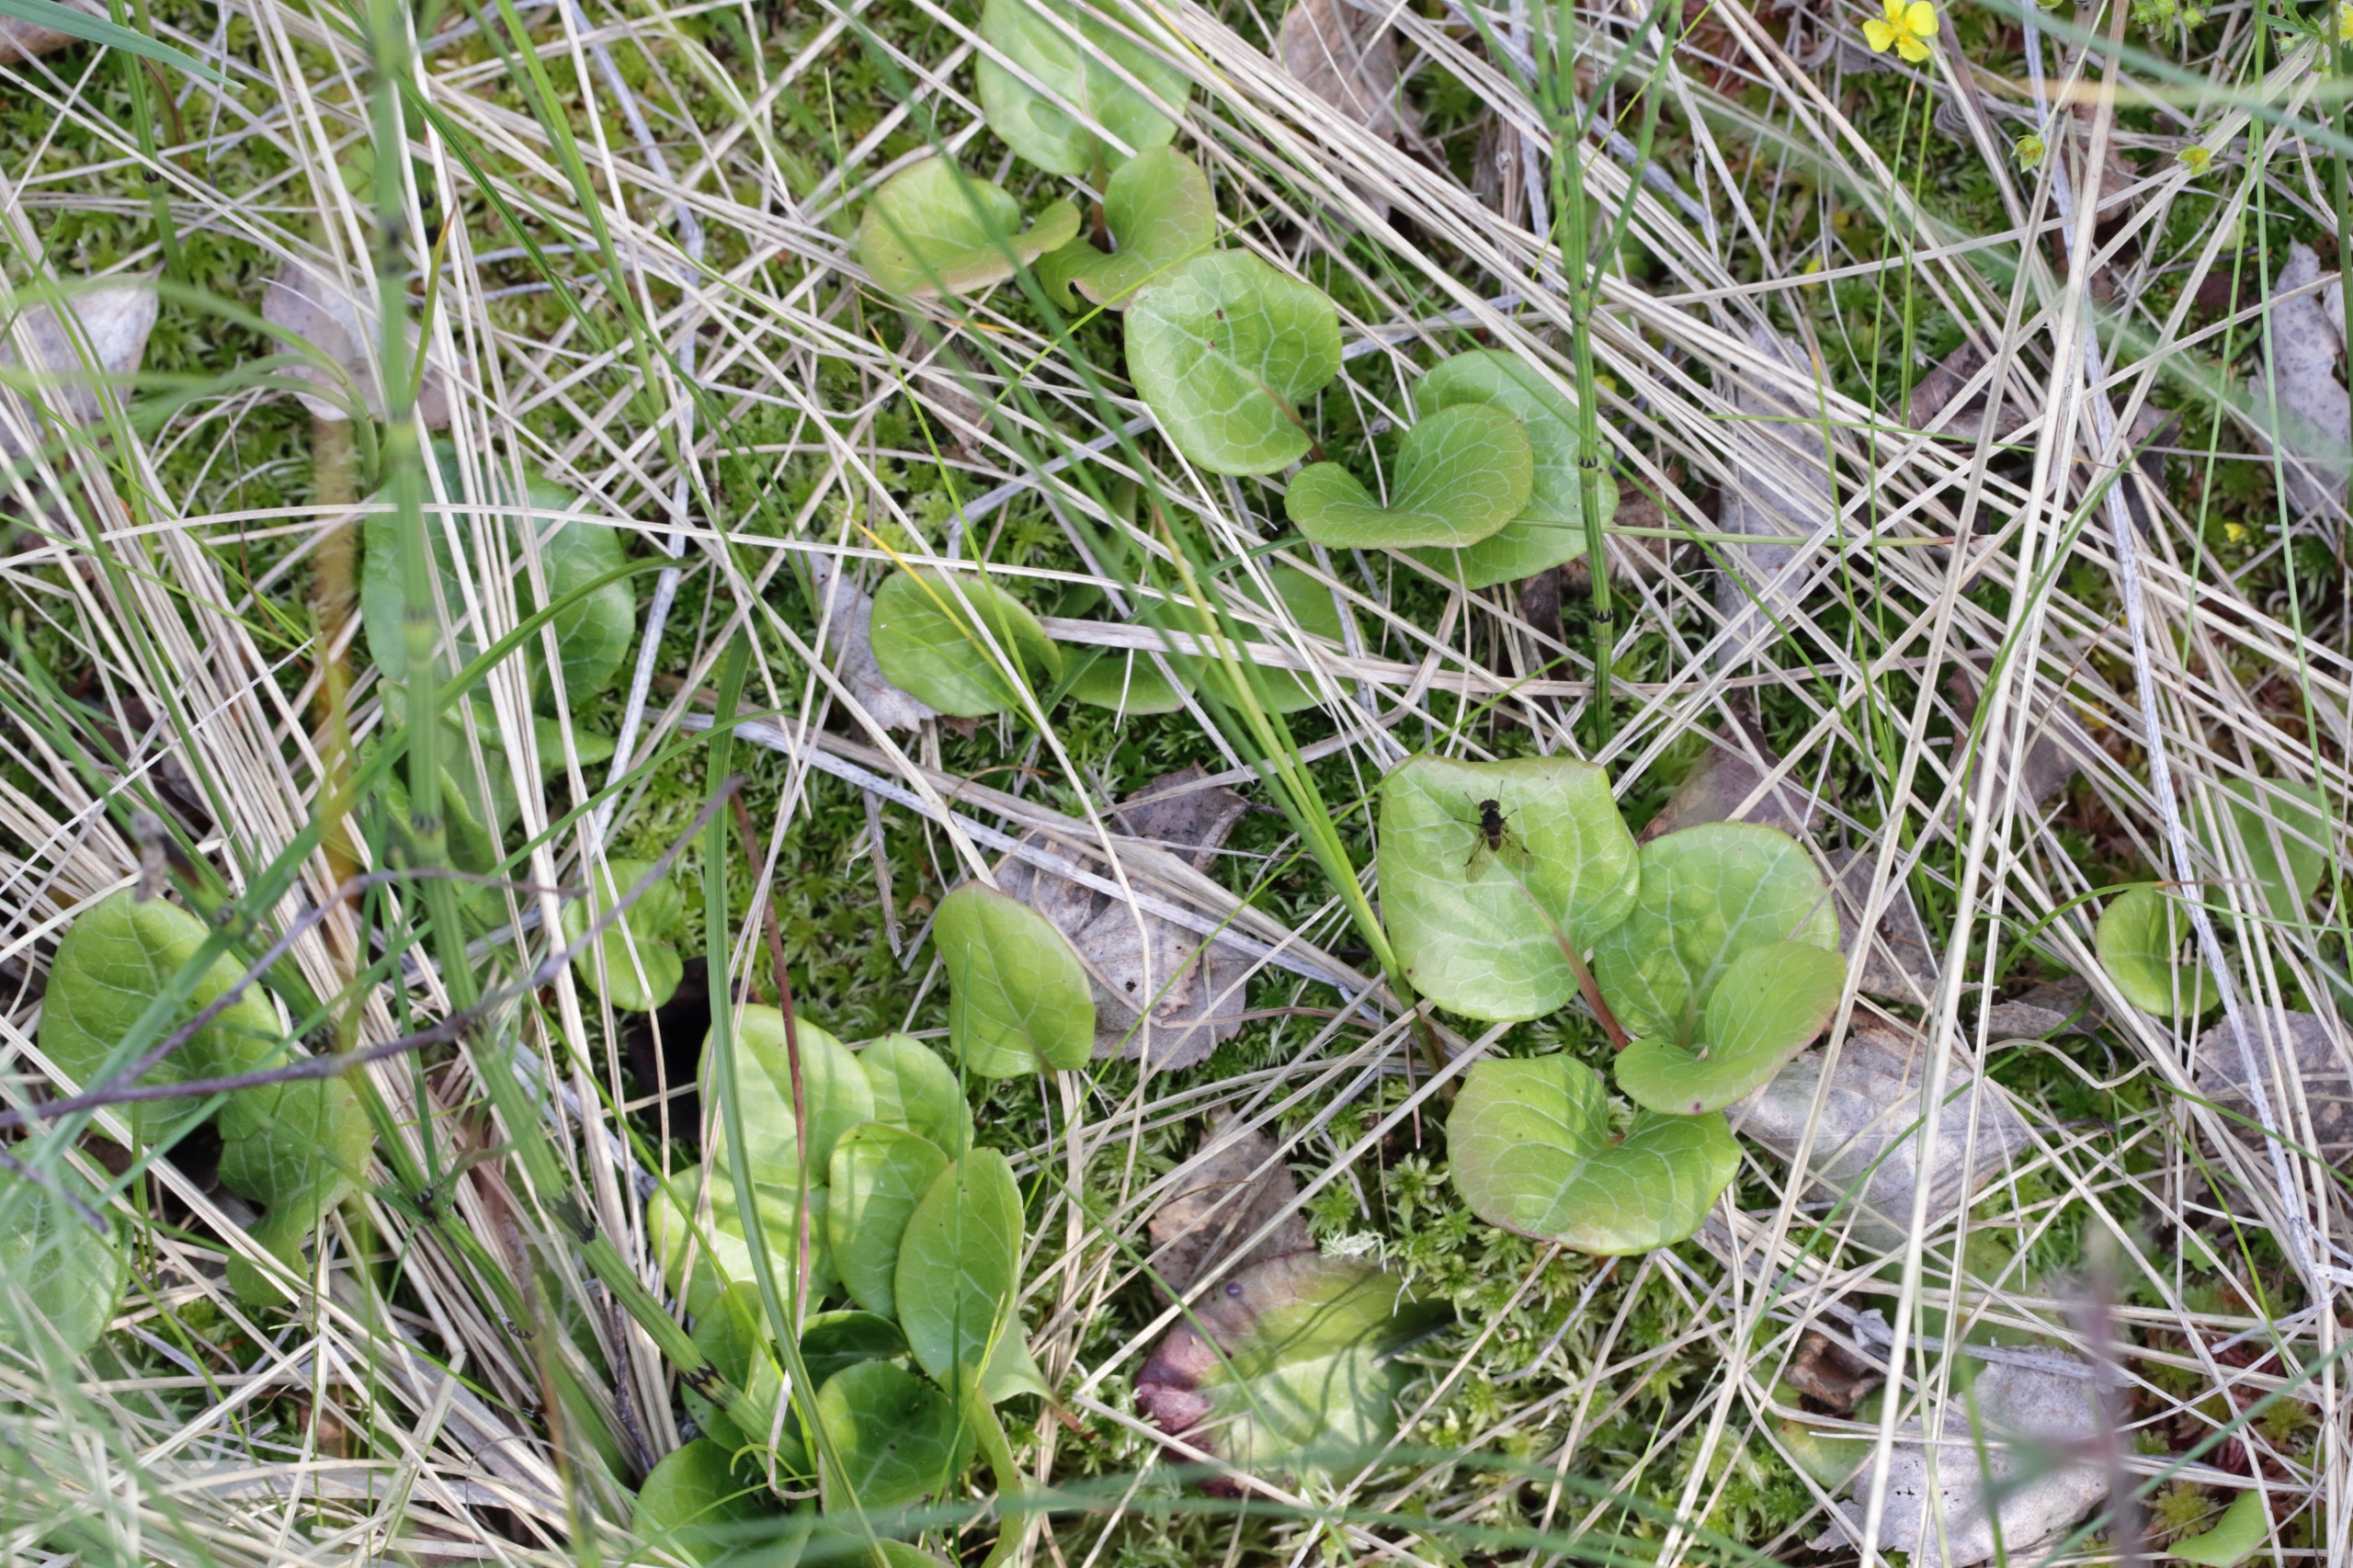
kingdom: Plantae
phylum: Tracheophyta
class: Magnoliopsida
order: Ericales
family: Ericaceae
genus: Pyrola
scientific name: Pyrola rotundifolia
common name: Mose-vintergrøn
